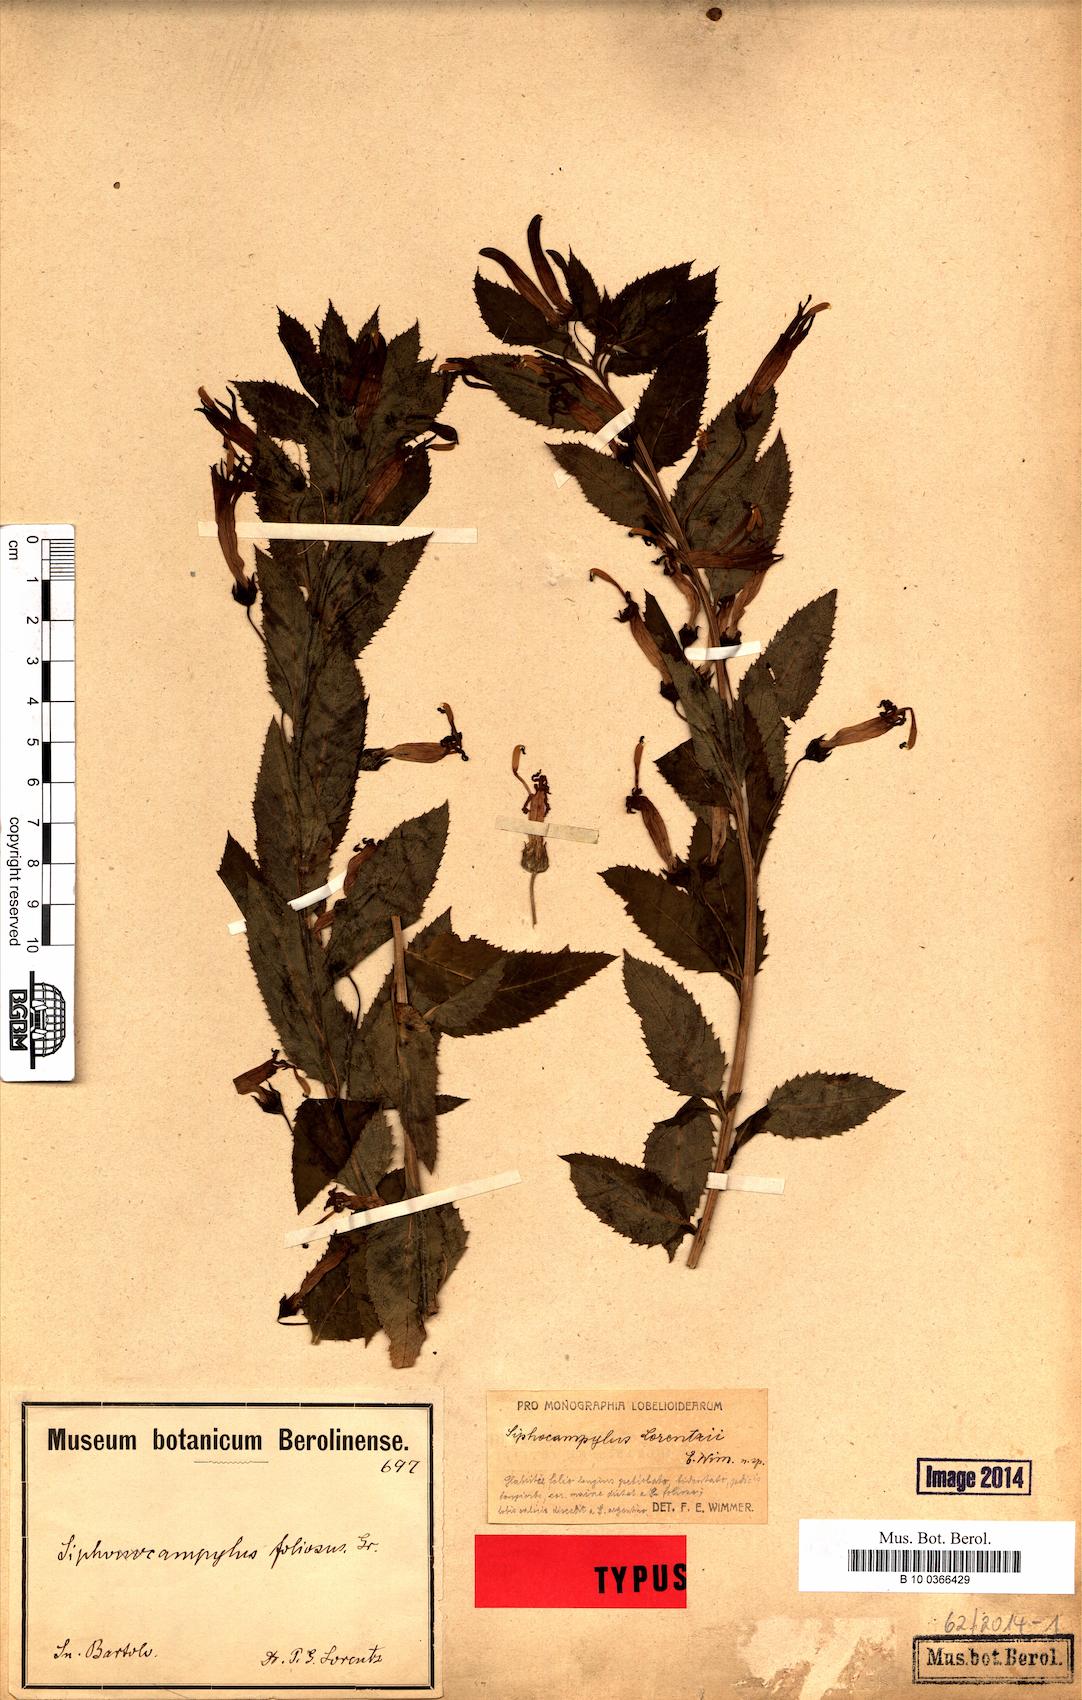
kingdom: Plantae
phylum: Tracheophyta
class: Magnoliopsida
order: Asterales
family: Campanulaceae
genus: Siphocampylus
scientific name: Siphocampylus nemoralis
